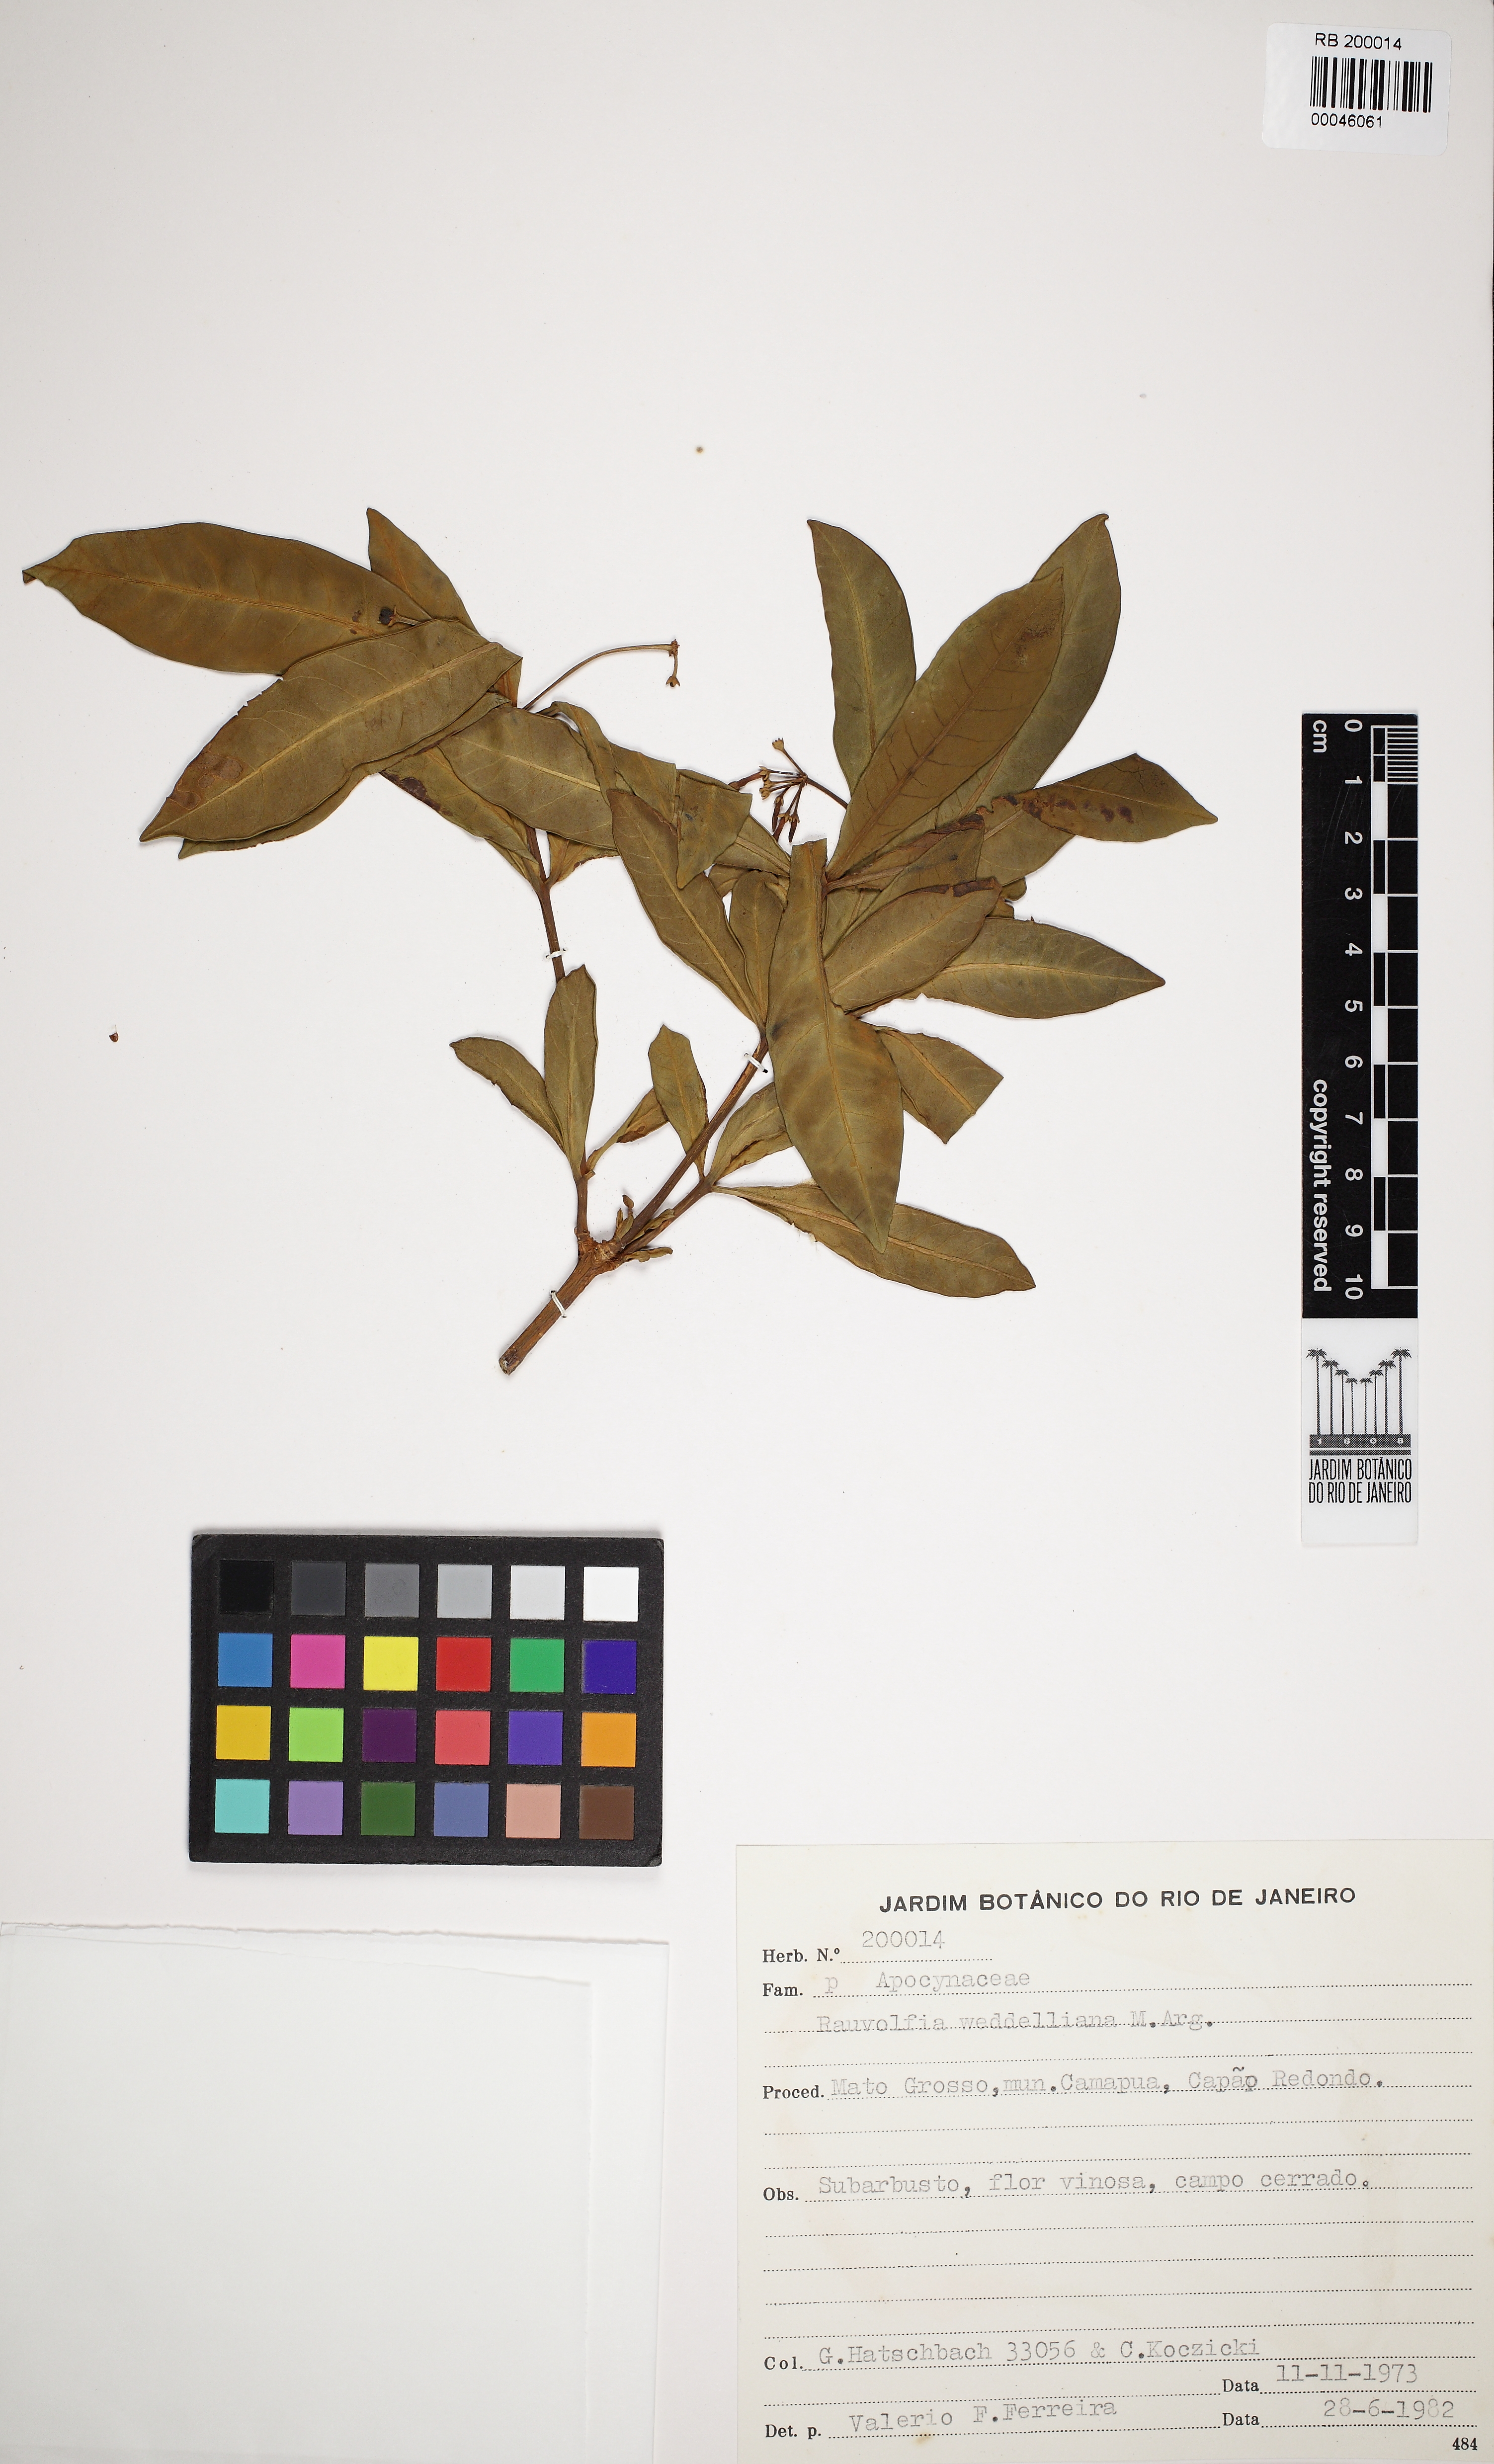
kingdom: Plantae
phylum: Tracheophyta
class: Magnoliopsida
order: Gentianales
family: Apocynaceae
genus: Rauvolfia
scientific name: Rauvolfia weddeliana
